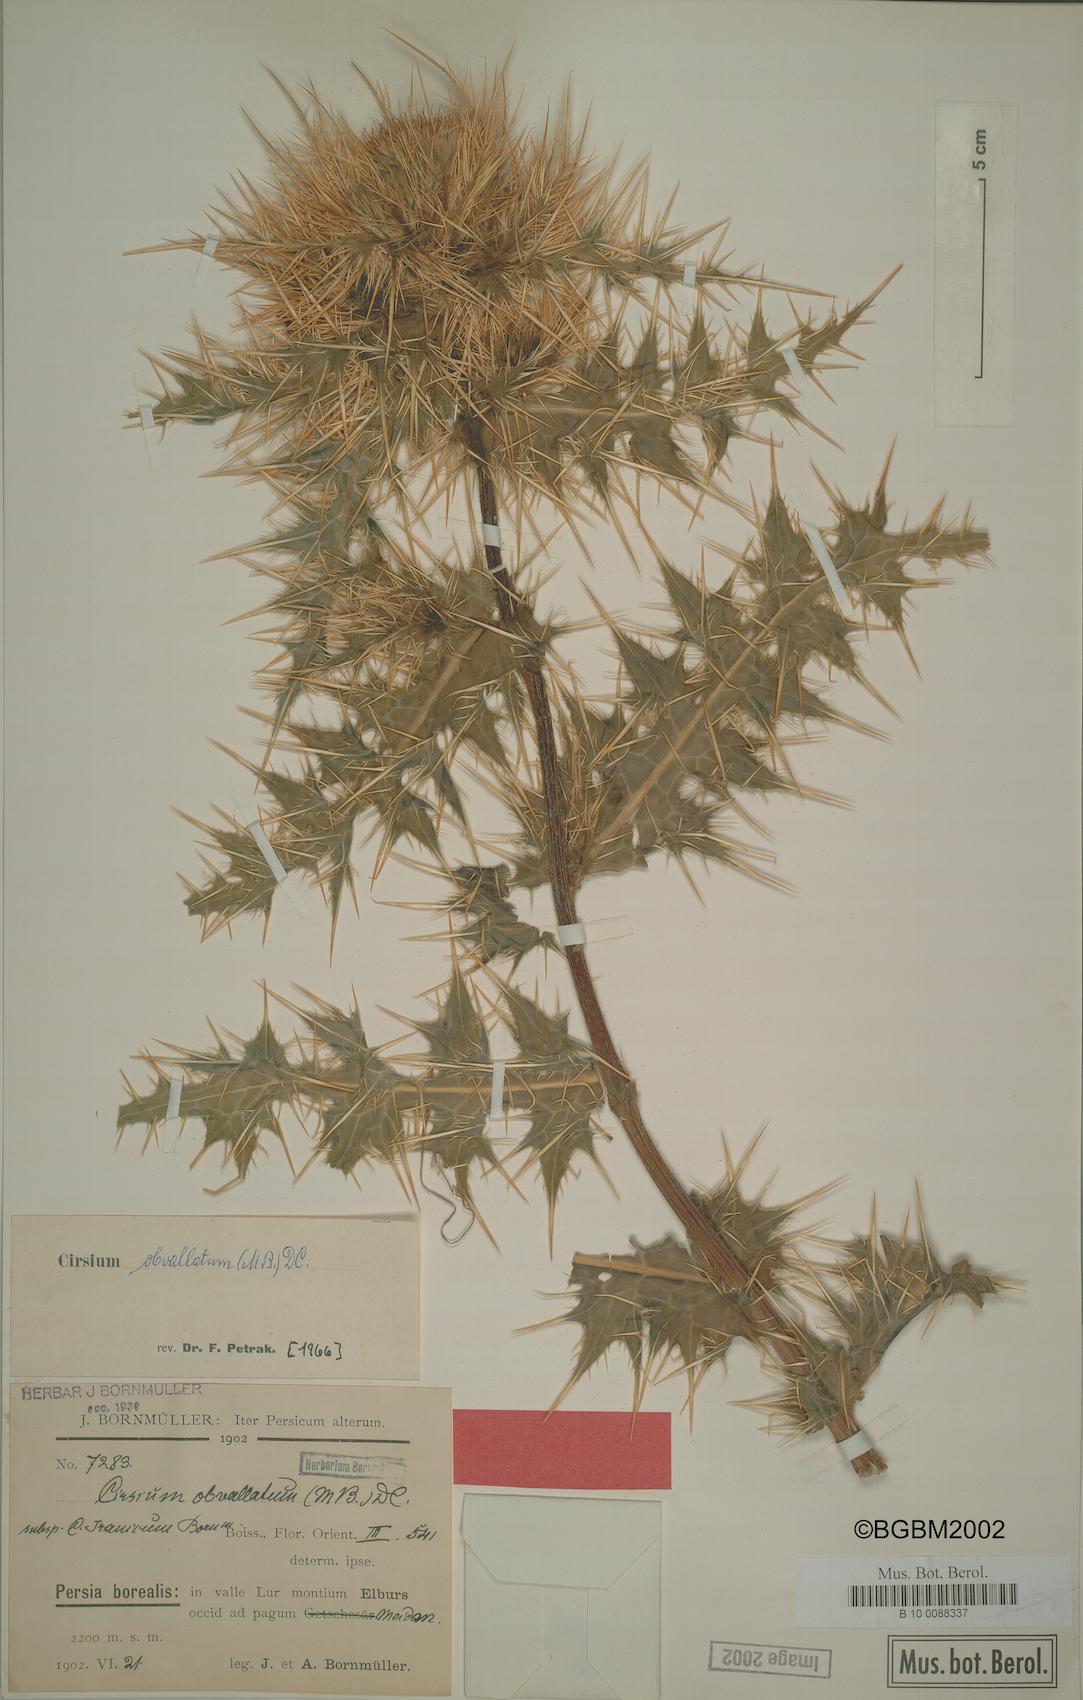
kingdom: Plantae
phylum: Tracheophyta
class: Magnoliopsida
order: Asterales
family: Asteraceae
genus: Cirsium
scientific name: Cirsium obvallatum
